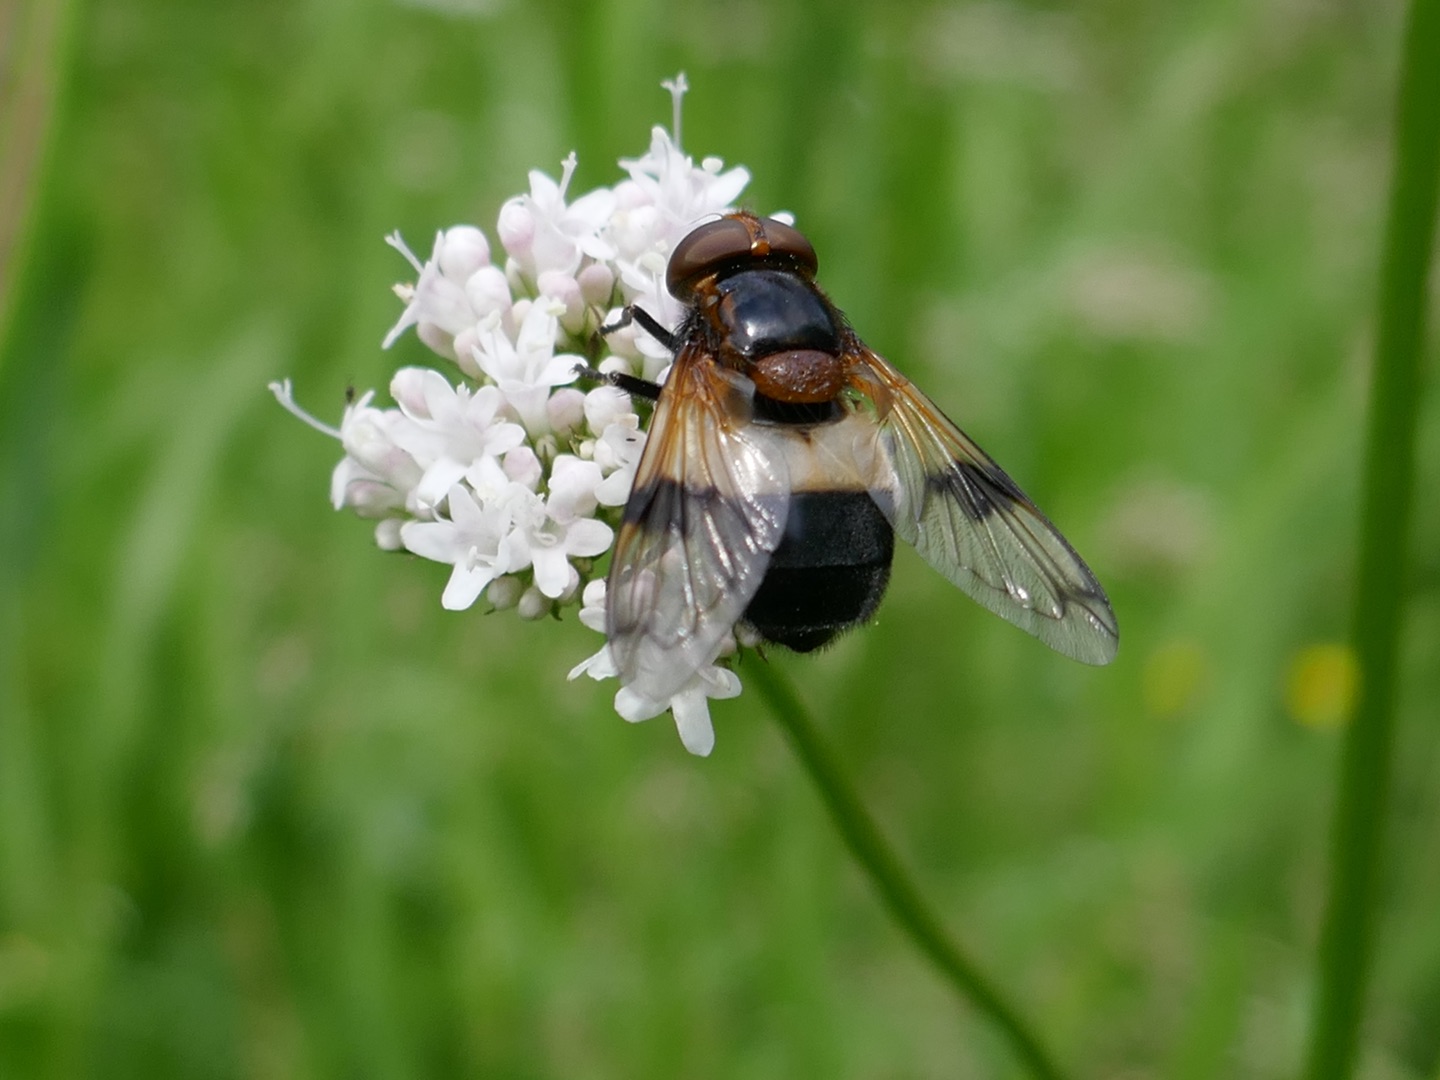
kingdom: Animalia
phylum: Arthropoda
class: Insecta
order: Diptera
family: Syrphidae
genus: Volucella
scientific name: Volucella pellucens
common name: Hvidbåndet humlesvirreflue
